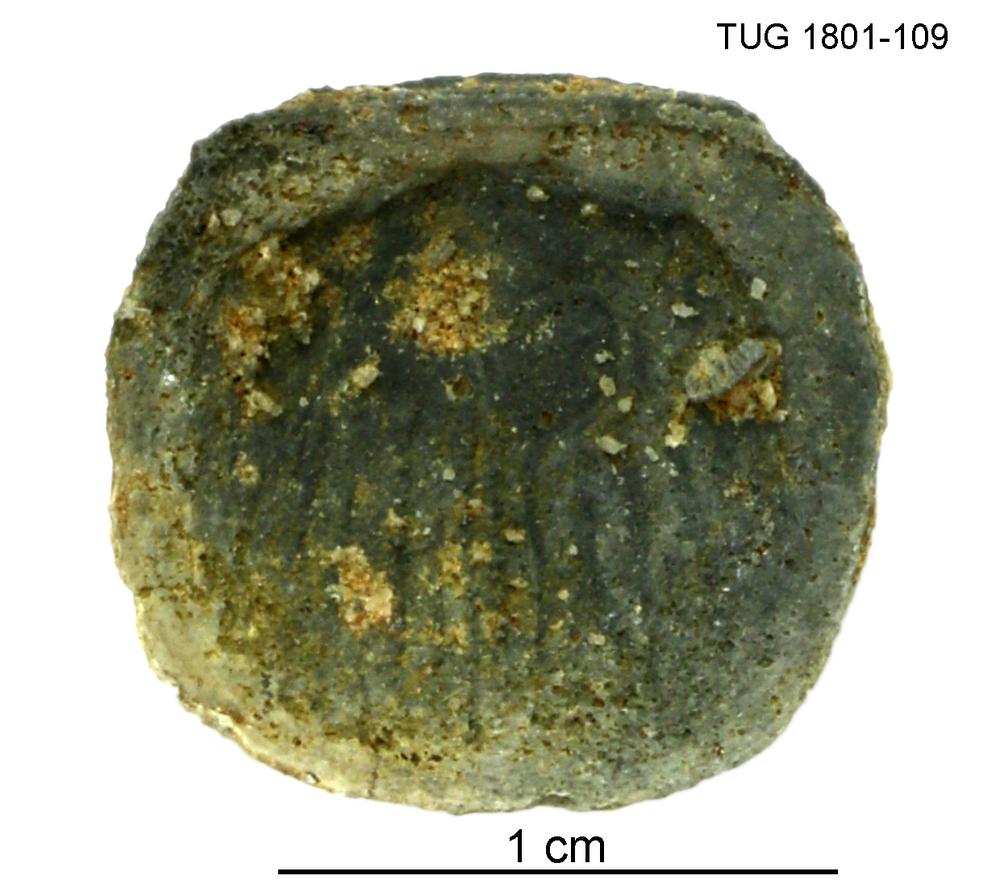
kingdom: Animalia
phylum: Brachiopoda
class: Craniata
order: Craniida
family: Craniidae
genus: Philhedra
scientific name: Philhedra
